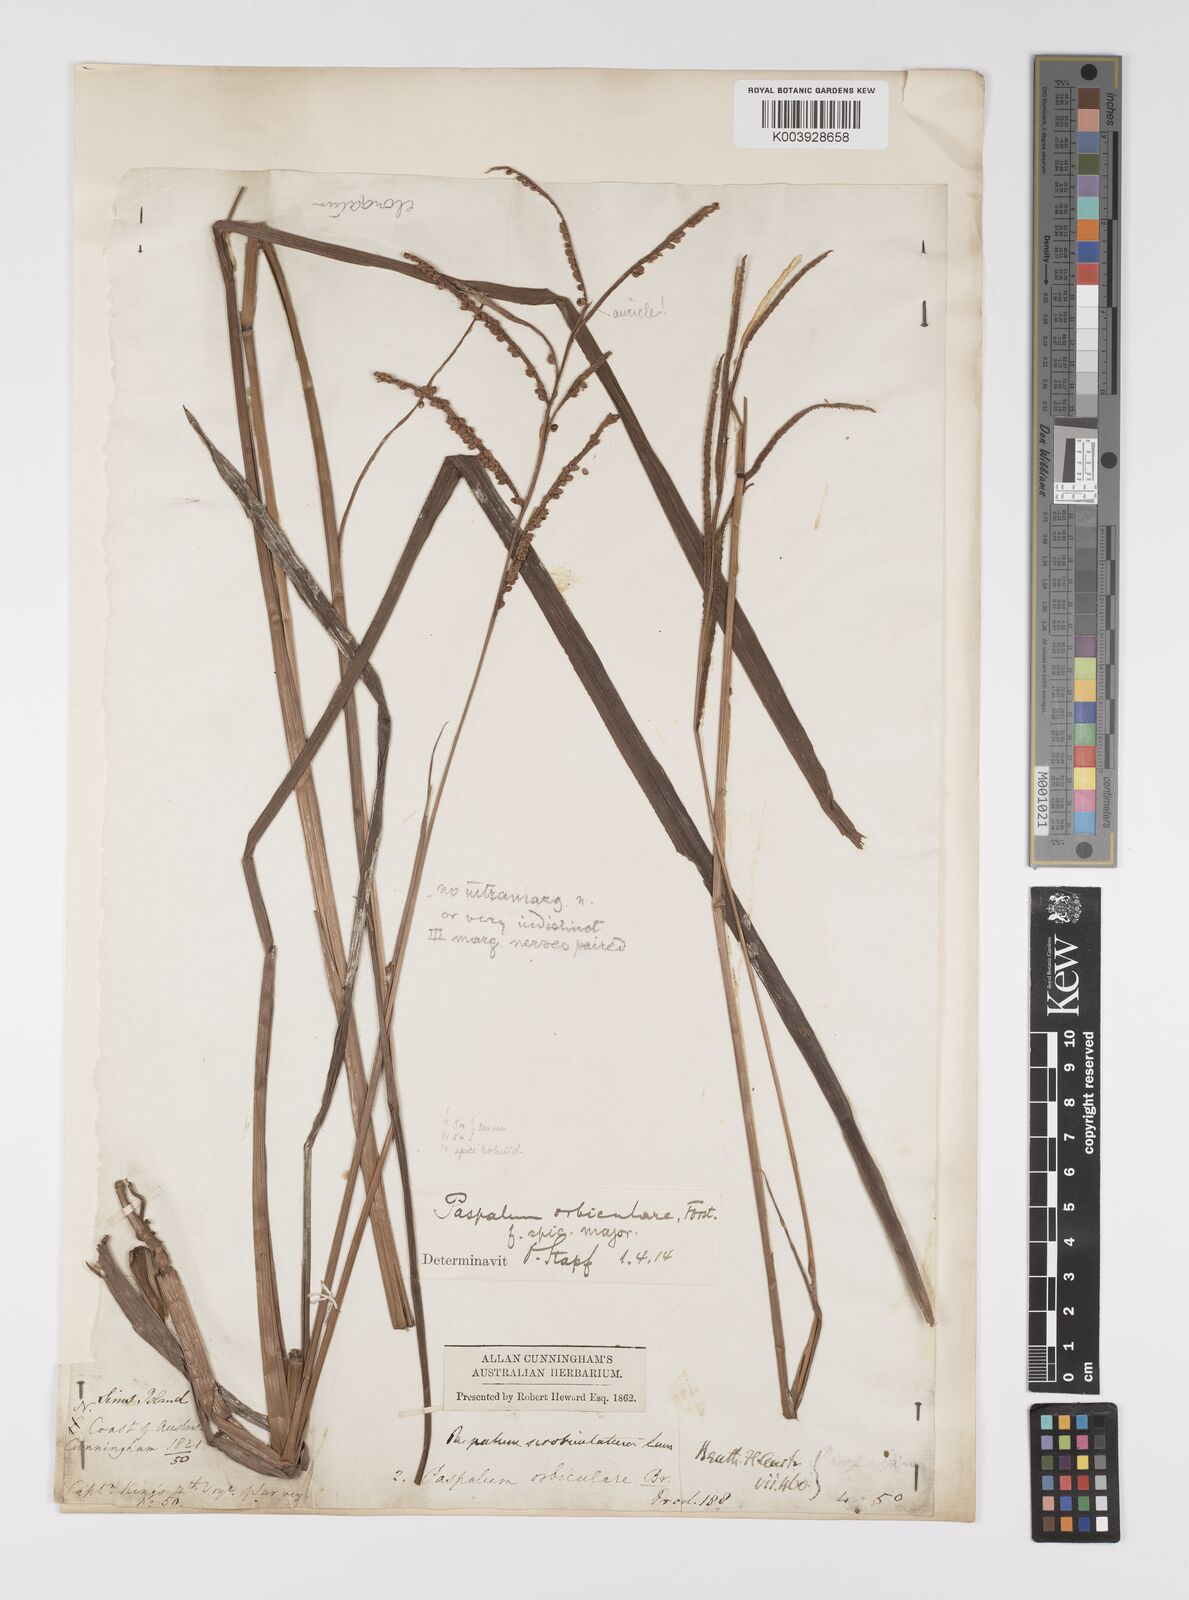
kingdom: Plantae
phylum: Tracheophyta
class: Liliopsida
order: Poales
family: Poaceae
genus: Paspalum
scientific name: Paspalum scrobiculatum
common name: Kodo millet
